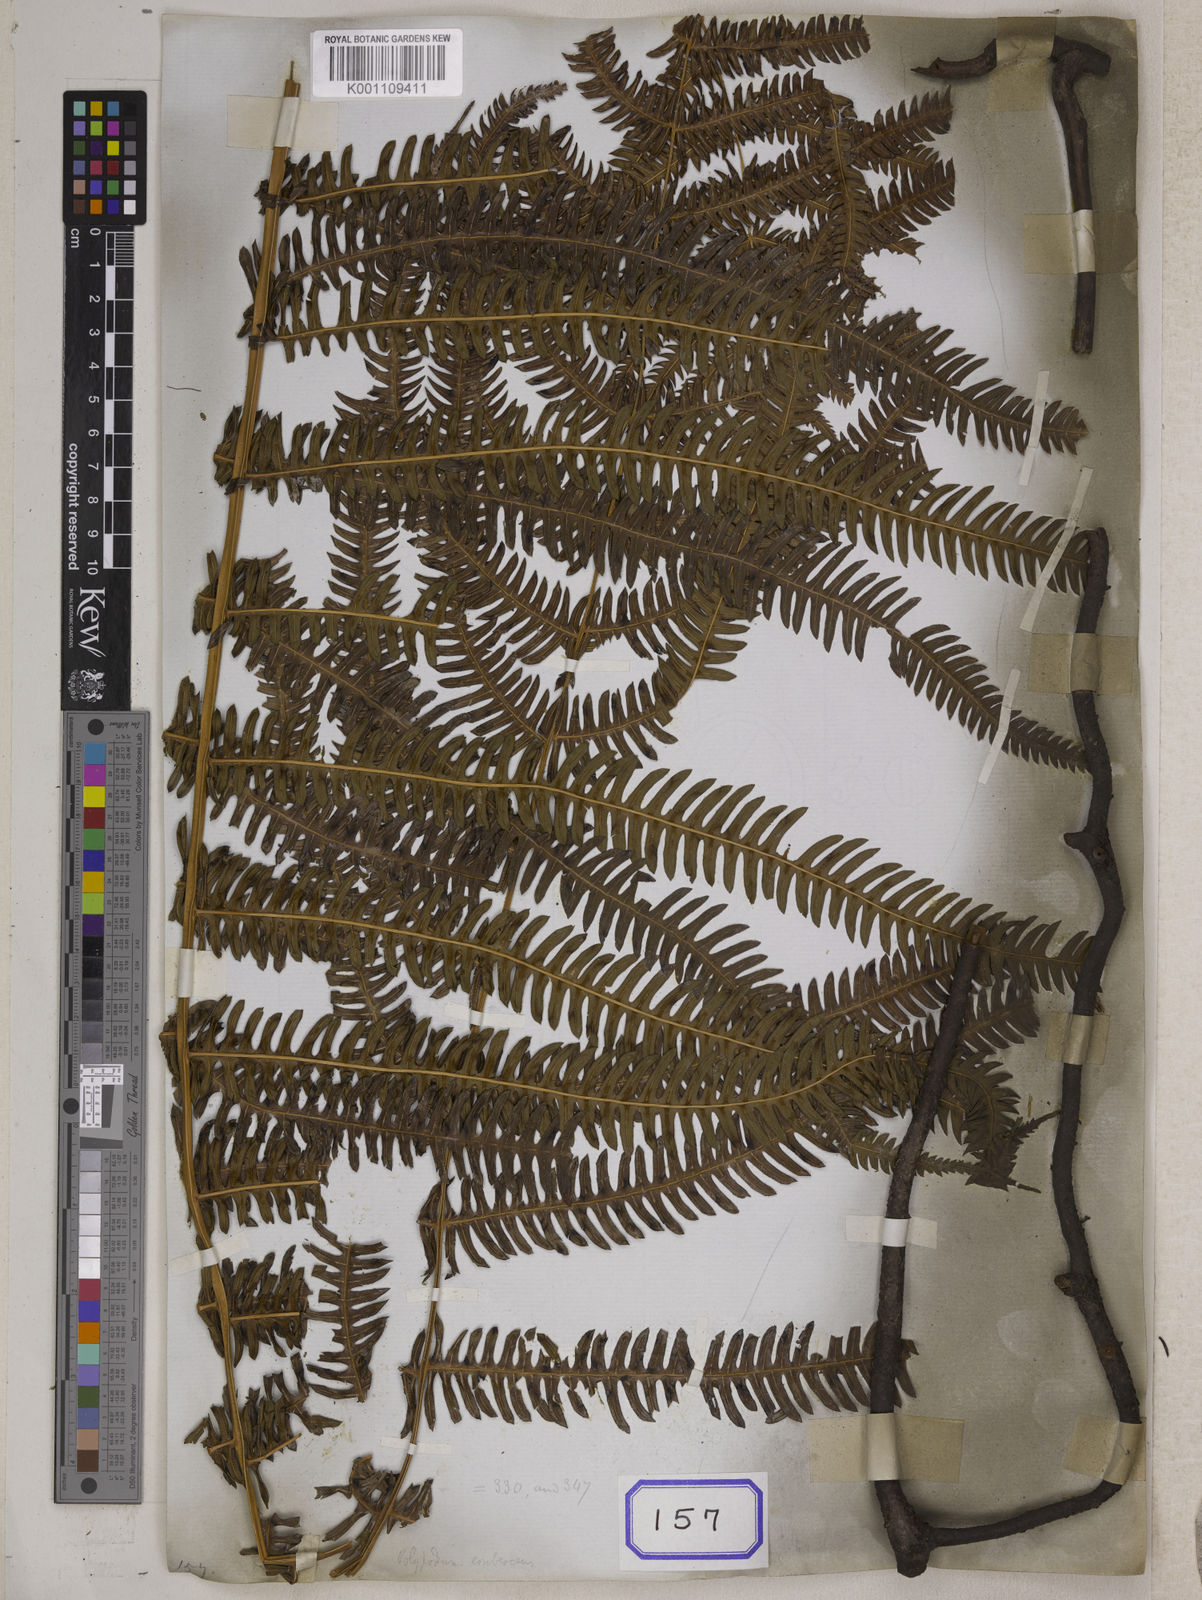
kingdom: Plantae
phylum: Tracheophyta
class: Polypodiopsida
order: Gleicheniales
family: Gleicheniaceae
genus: Gleichenia
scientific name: Gleichenia
